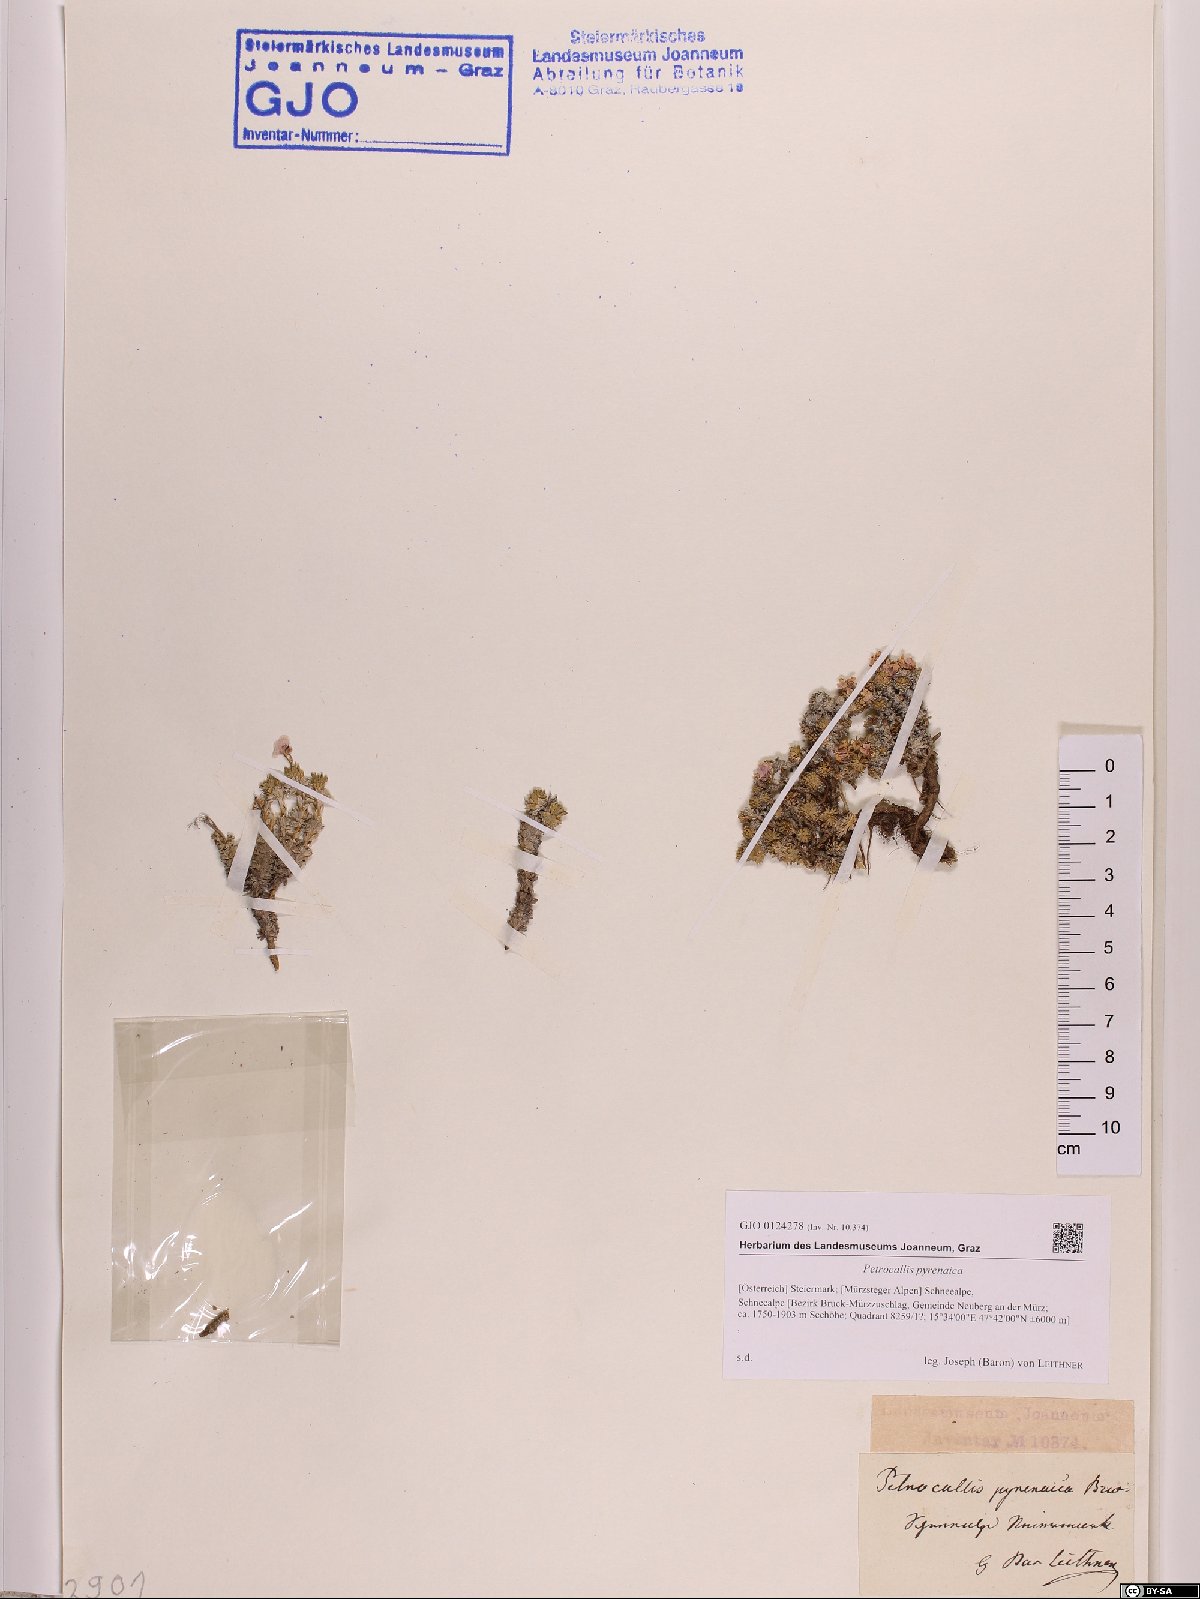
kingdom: Plantae
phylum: Tracheophyta
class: Magnoliopsida
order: Brassicales
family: Brassicaceae
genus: Petrocallis
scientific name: Petrocallis pyrenaica
